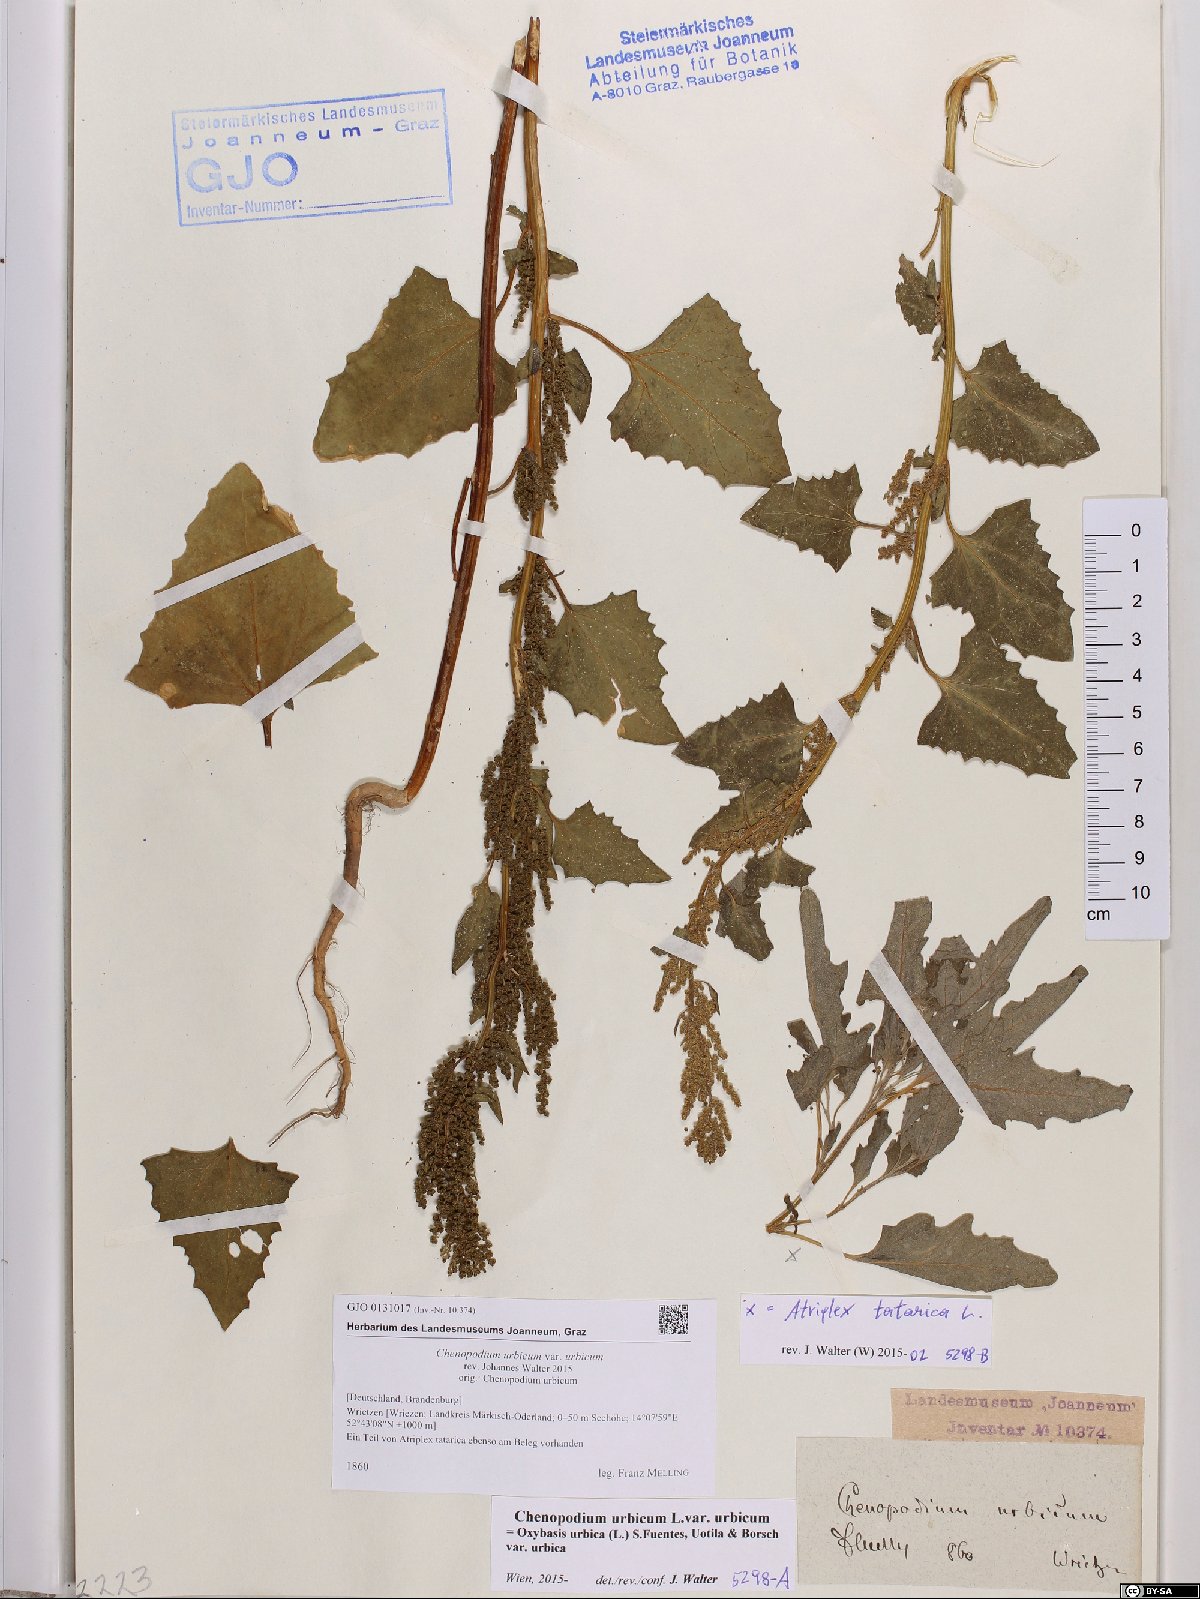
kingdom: Plantae
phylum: Tracheophyta
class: Magnoliopsida
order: Caryophyllales
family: Amaranthaceae
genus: Oxybasis
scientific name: Oxybasis urbica
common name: City goosefoot
